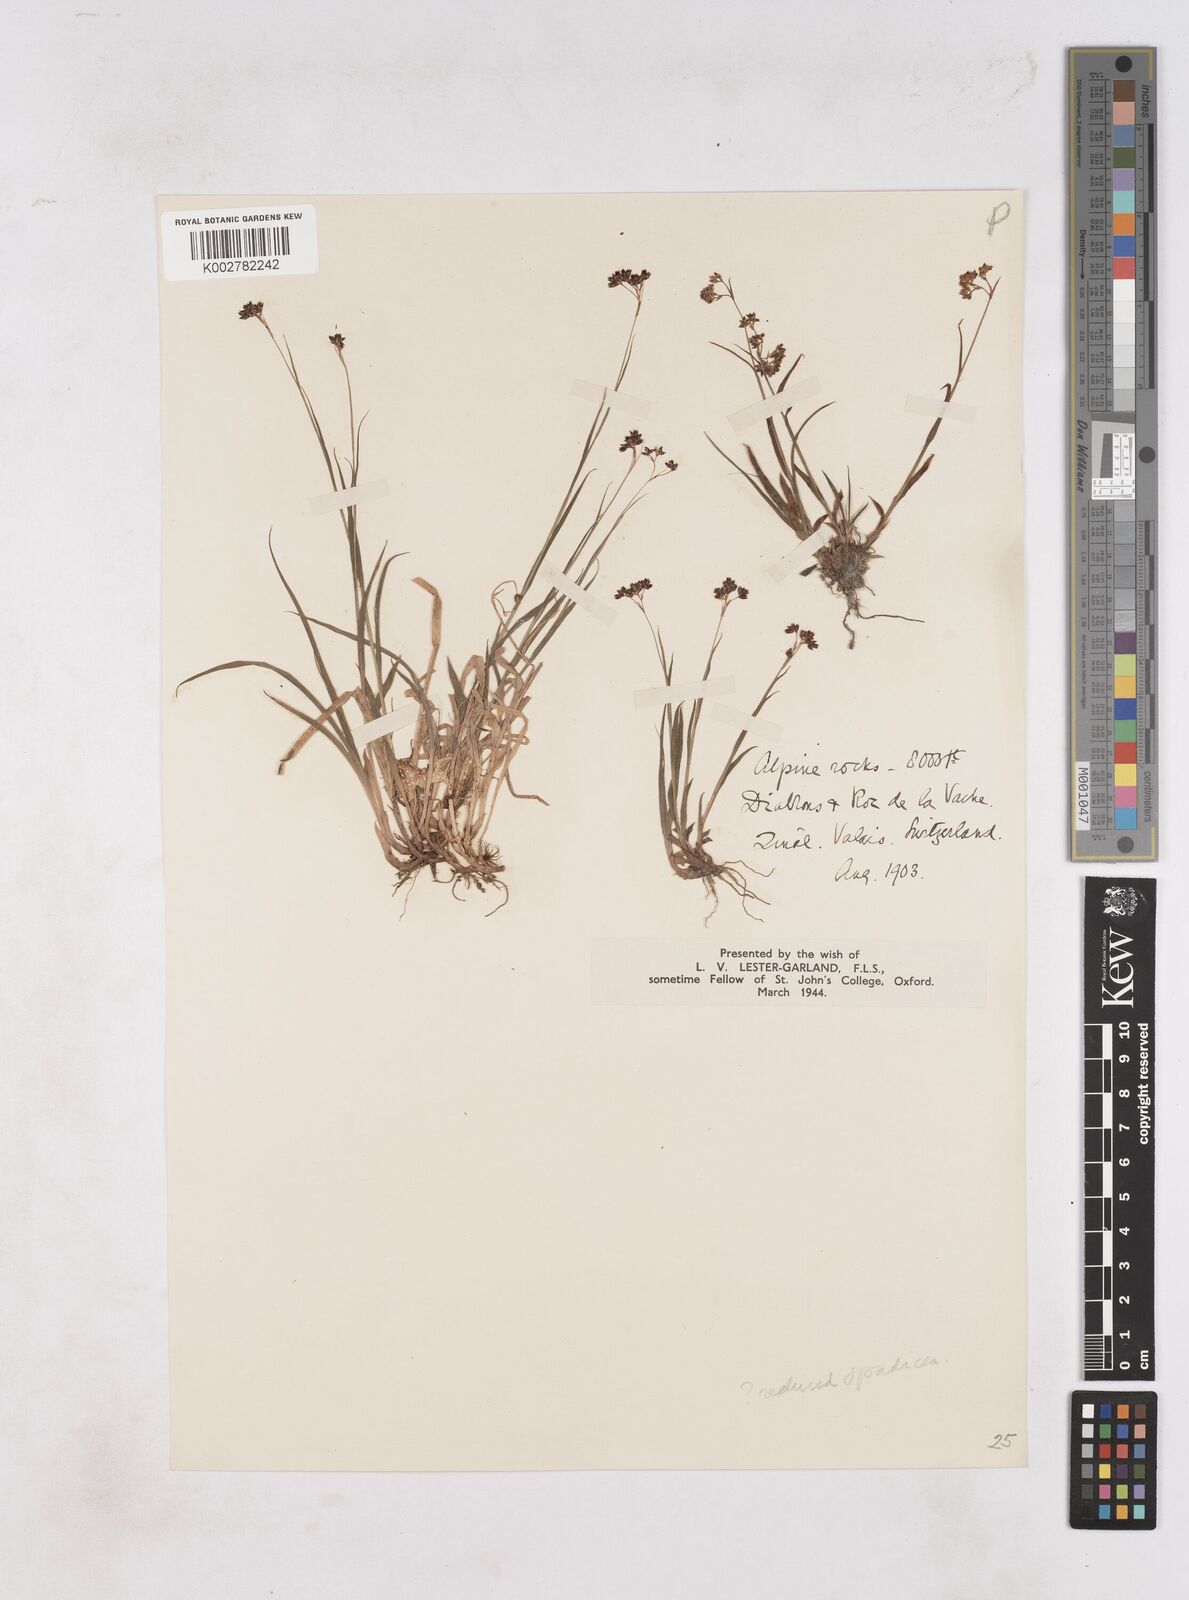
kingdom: Plantae
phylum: Tracheophyta
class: Liliopsida
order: Poales
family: Juncaceae
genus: Luzula
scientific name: Luzula alpinopilosa
